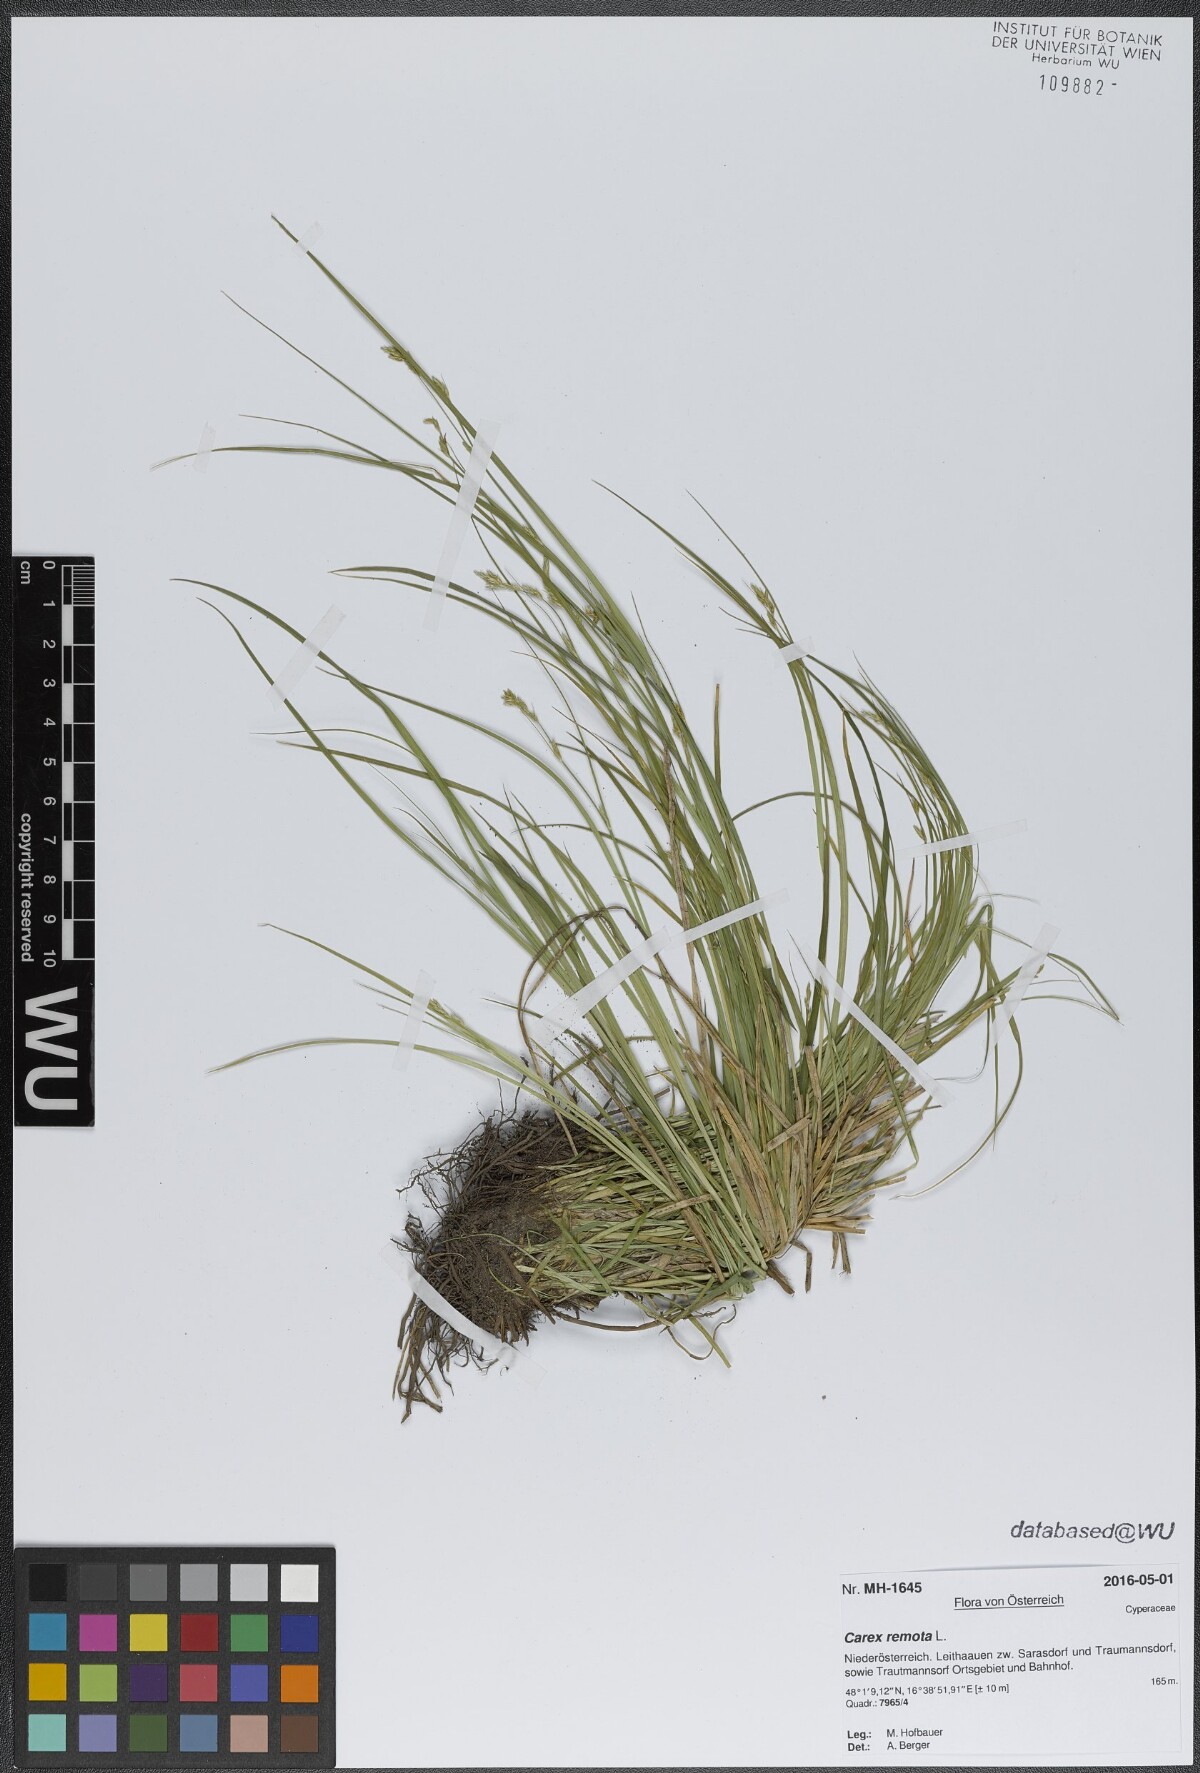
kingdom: Plantae
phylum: Tracheophyta
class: Liliopsida
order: Poales
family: Cyperaceae
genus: Carex
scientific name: Carex remota
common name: Remote sedge
